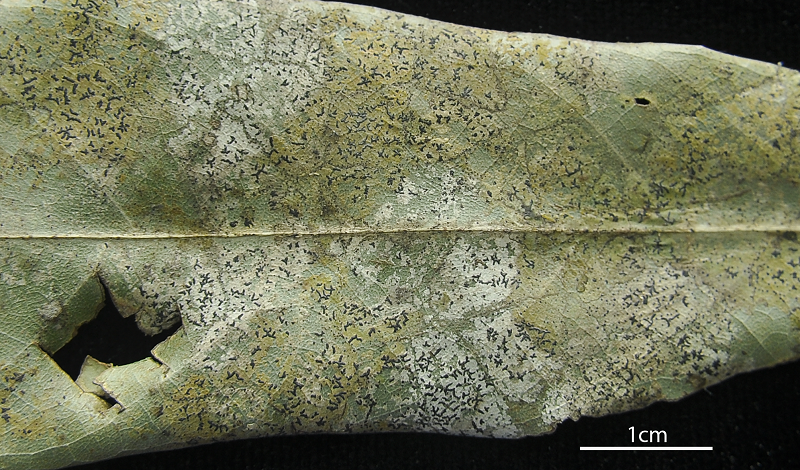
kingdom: Fungi
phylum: Ascomycota
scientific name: Ascomycota
